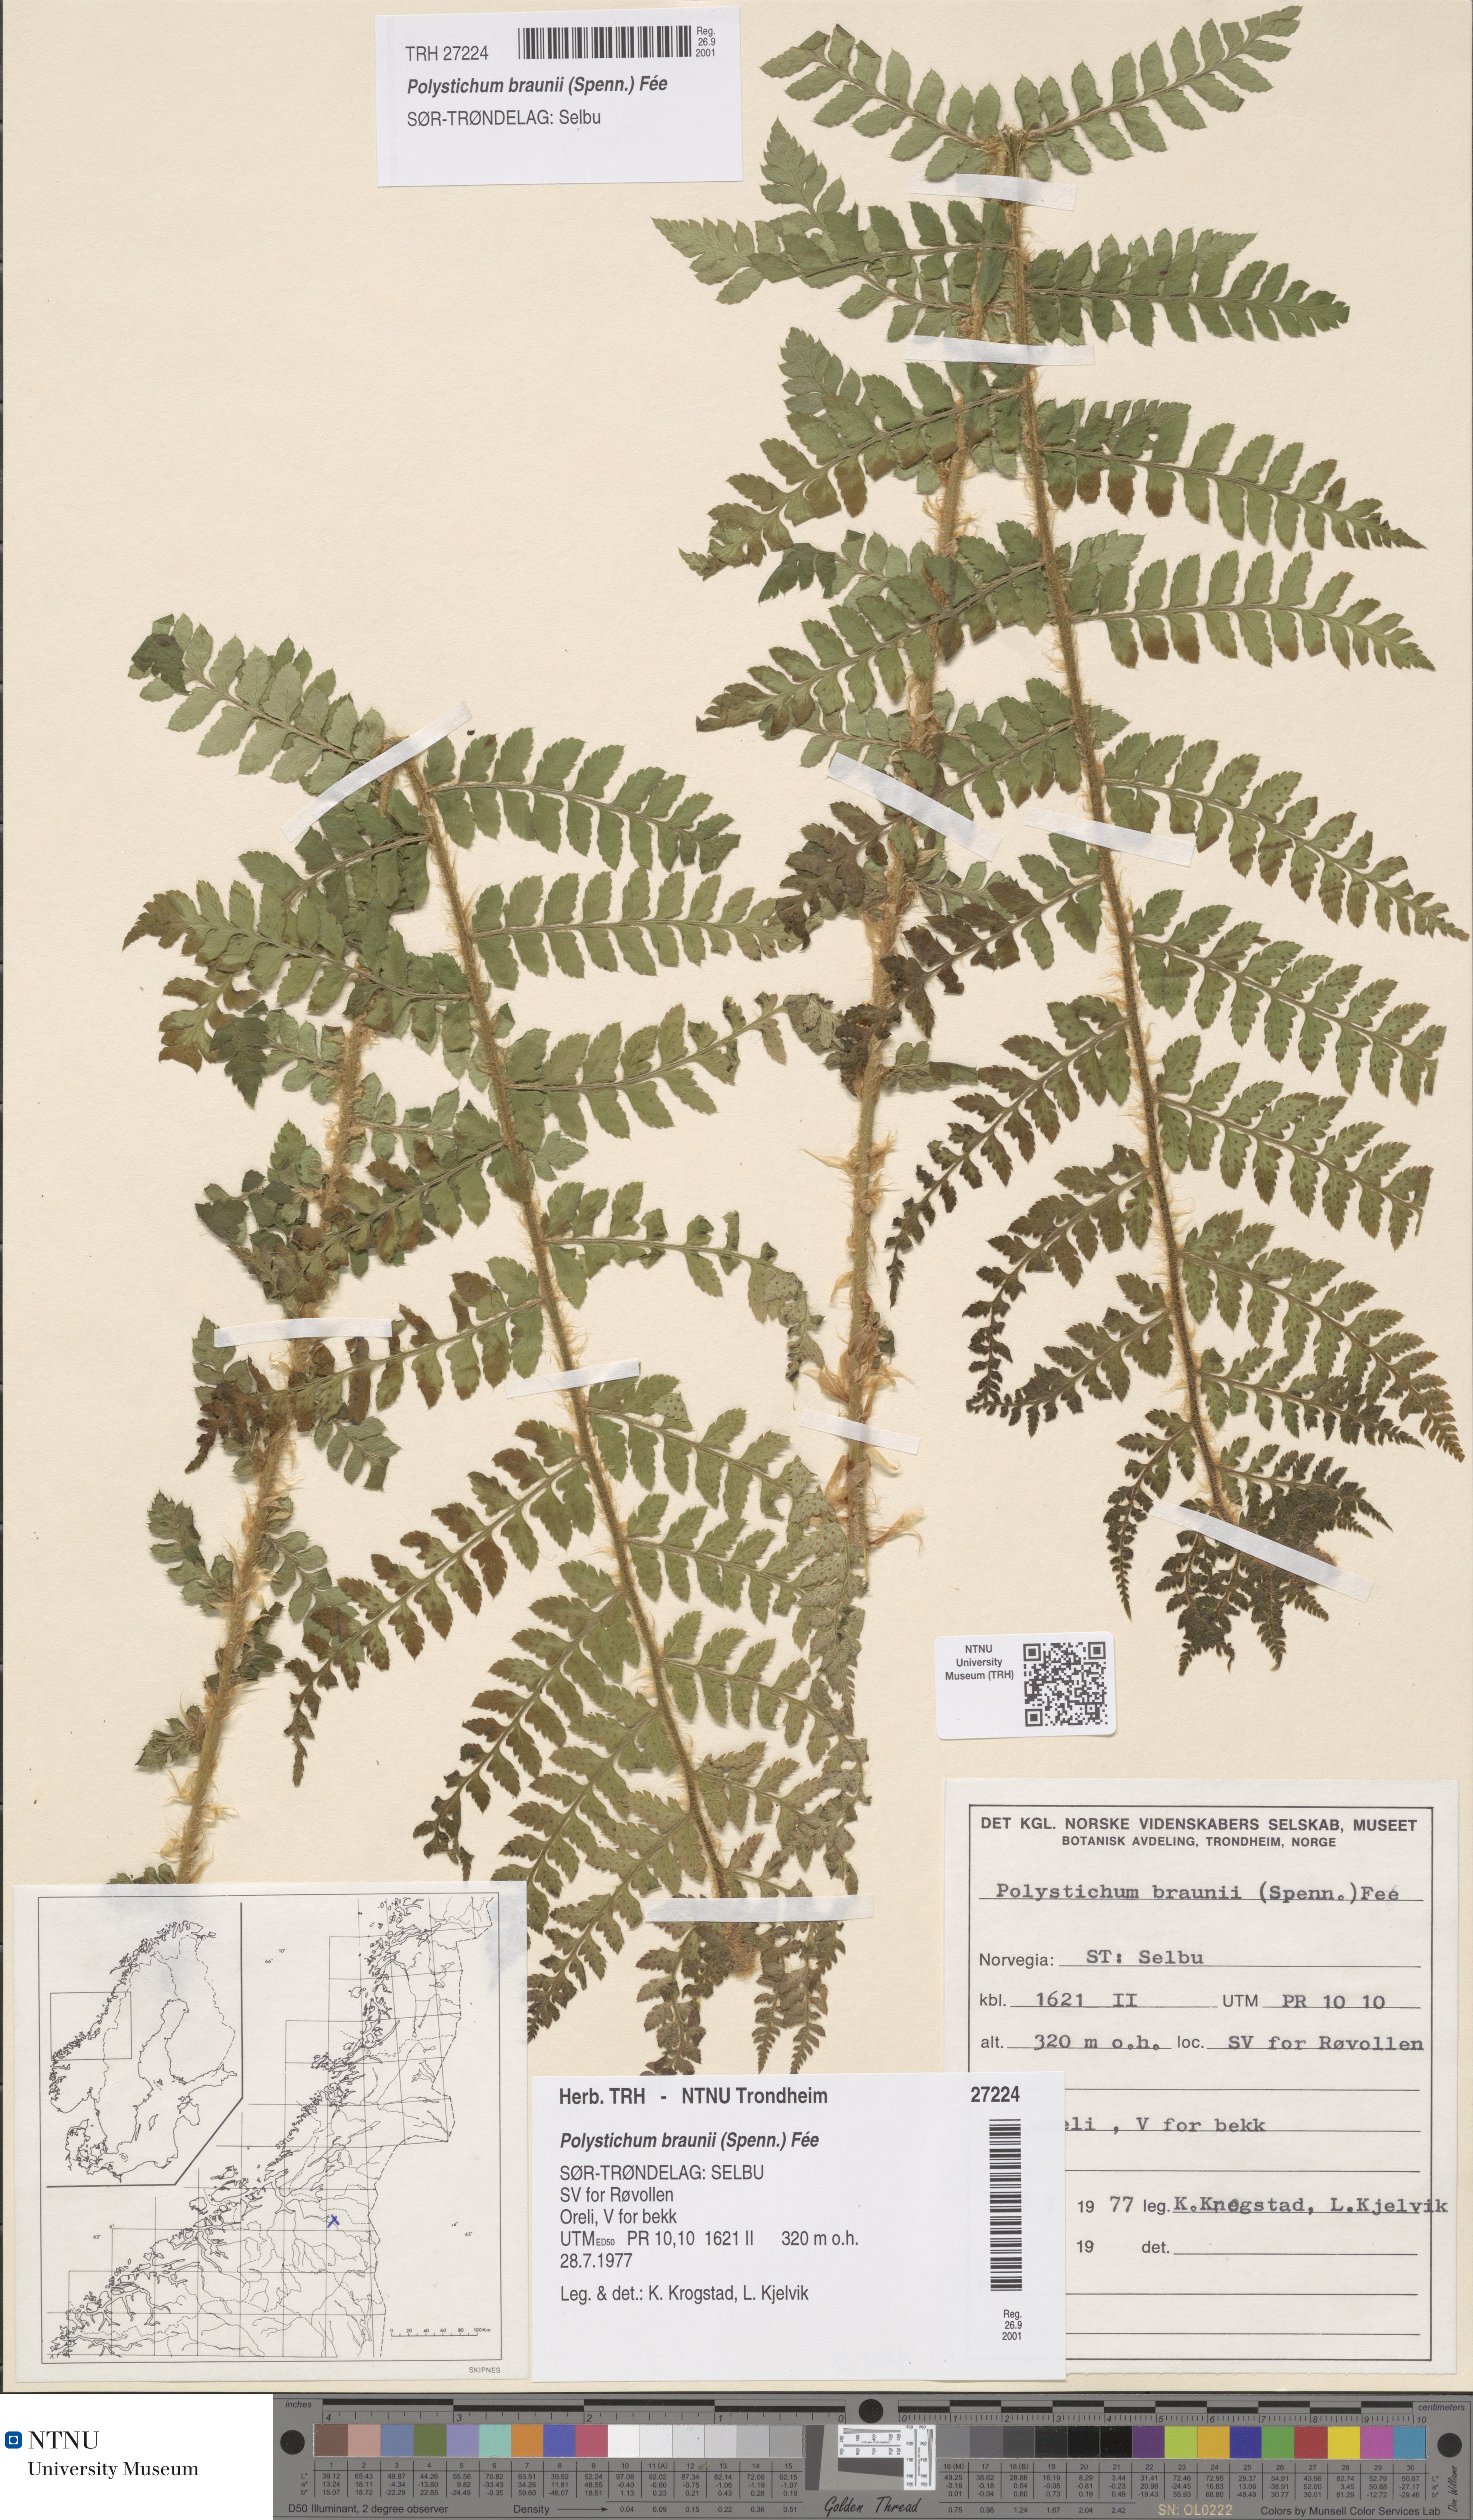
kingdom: Plantae
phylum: Tracheophyta
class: Polypodiopsida
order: Polypodiales
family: Dryopteridaceae
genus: Polystichum
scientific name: Polystichum braunii
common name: Braun's holly fern
